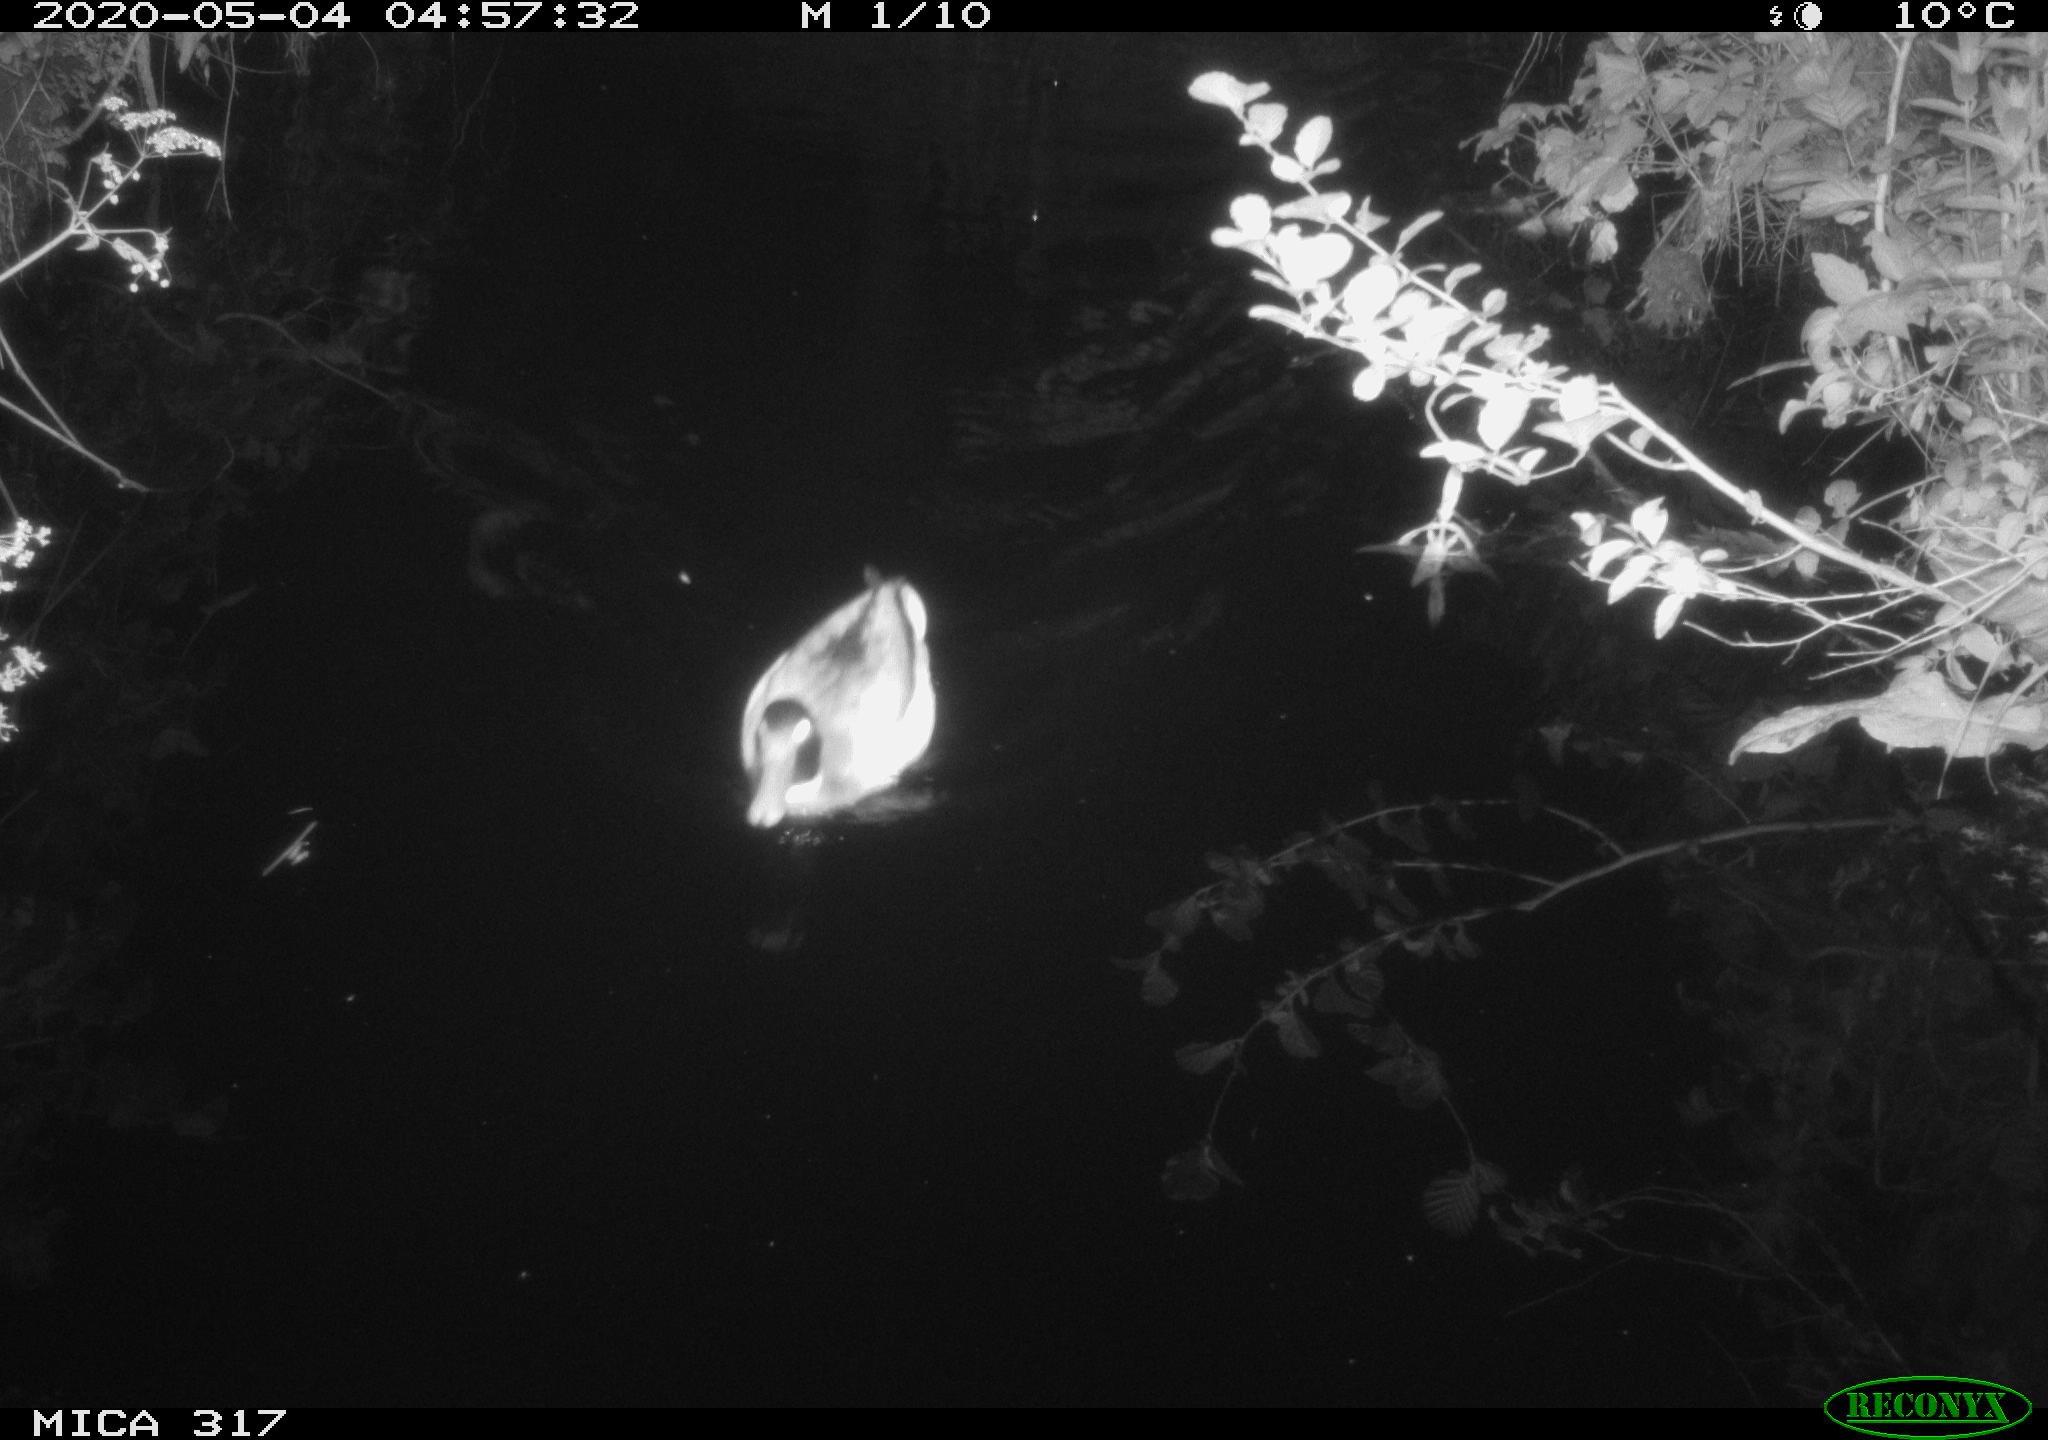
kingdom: Animalia
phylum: Chordata
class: Aves
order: Anseriformes
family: Anatidae
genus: Anas
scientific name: Anas platyrhynchos
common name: Mallard
